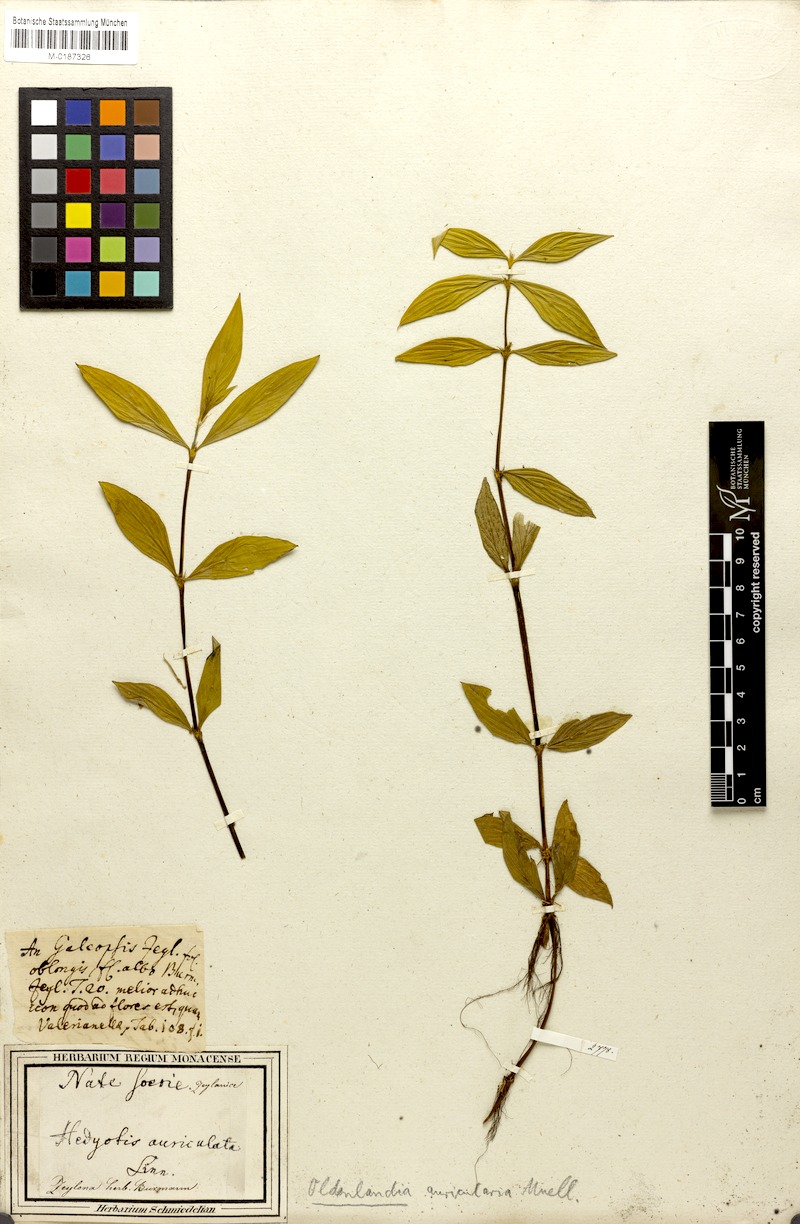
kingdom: Plantae
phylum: Tracheophyta
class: Magnoliopsida
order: Gentianales
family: Rubiaceae
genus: Exallage
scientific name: Exallage auricularia
